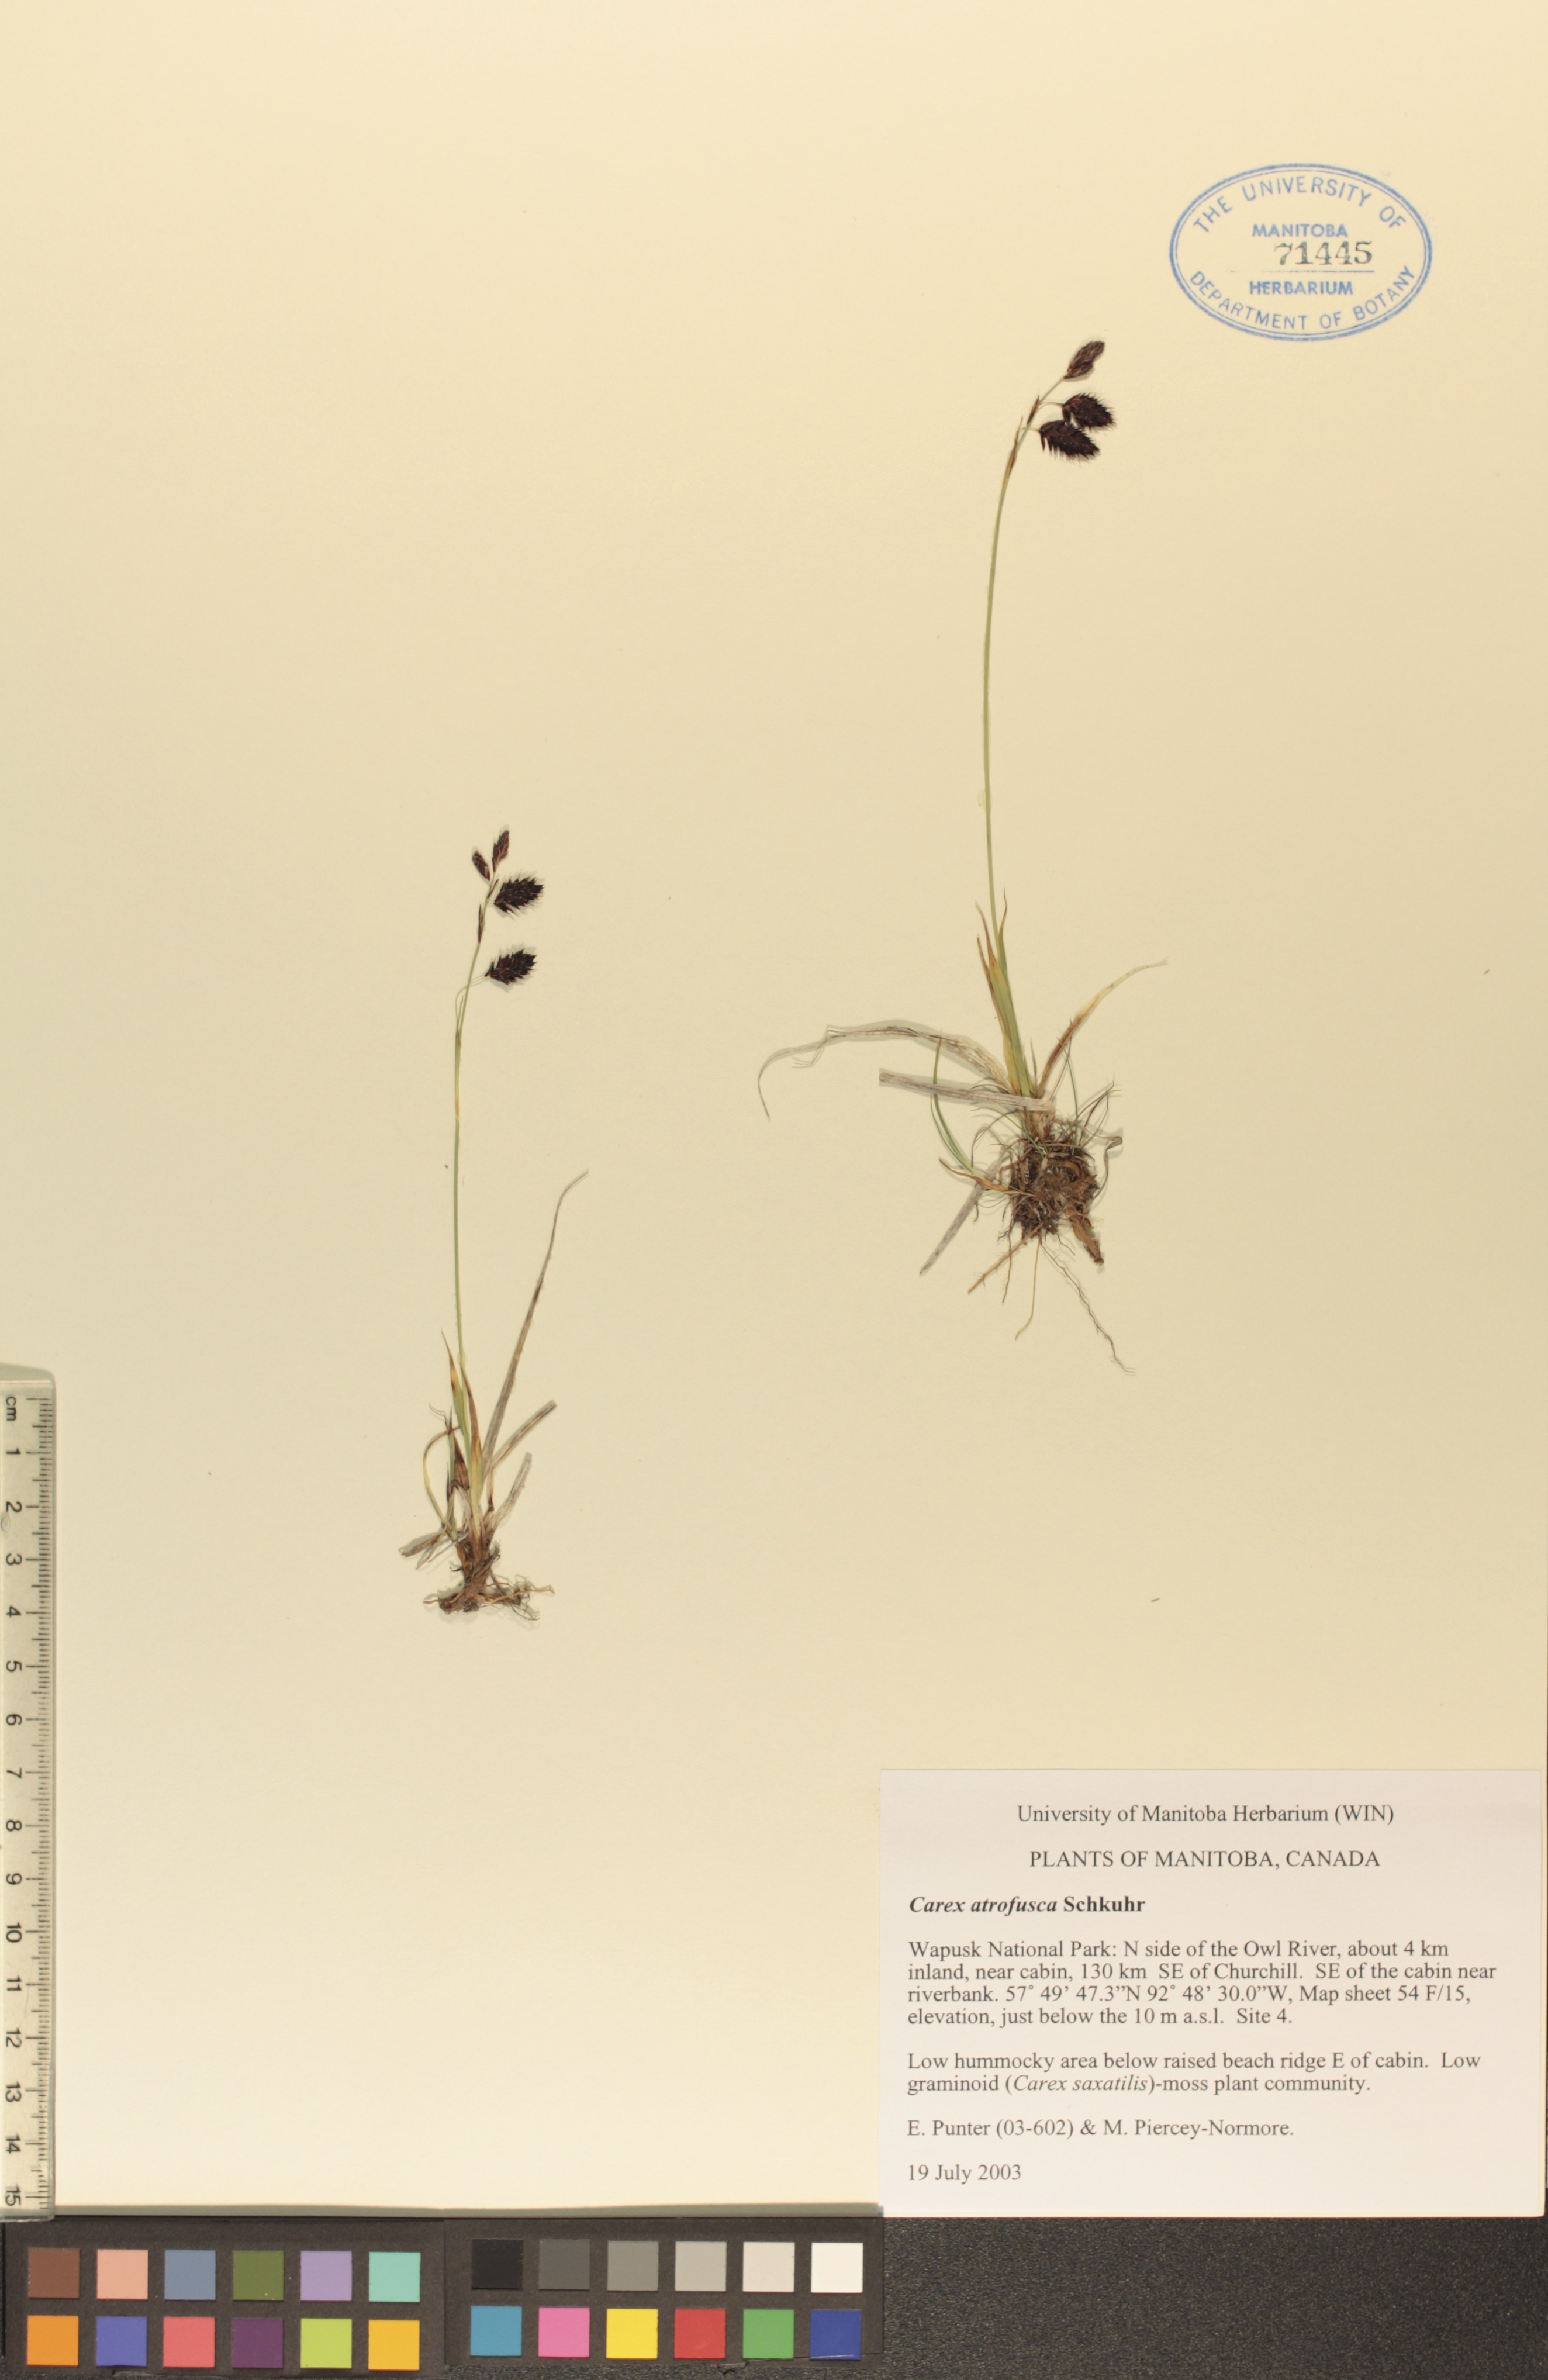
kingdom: Plantae
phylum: Tracheophyta
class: Liliopsida
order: Poales
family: Cyperaceae
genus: Carex
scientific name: Carex pichinchensis
